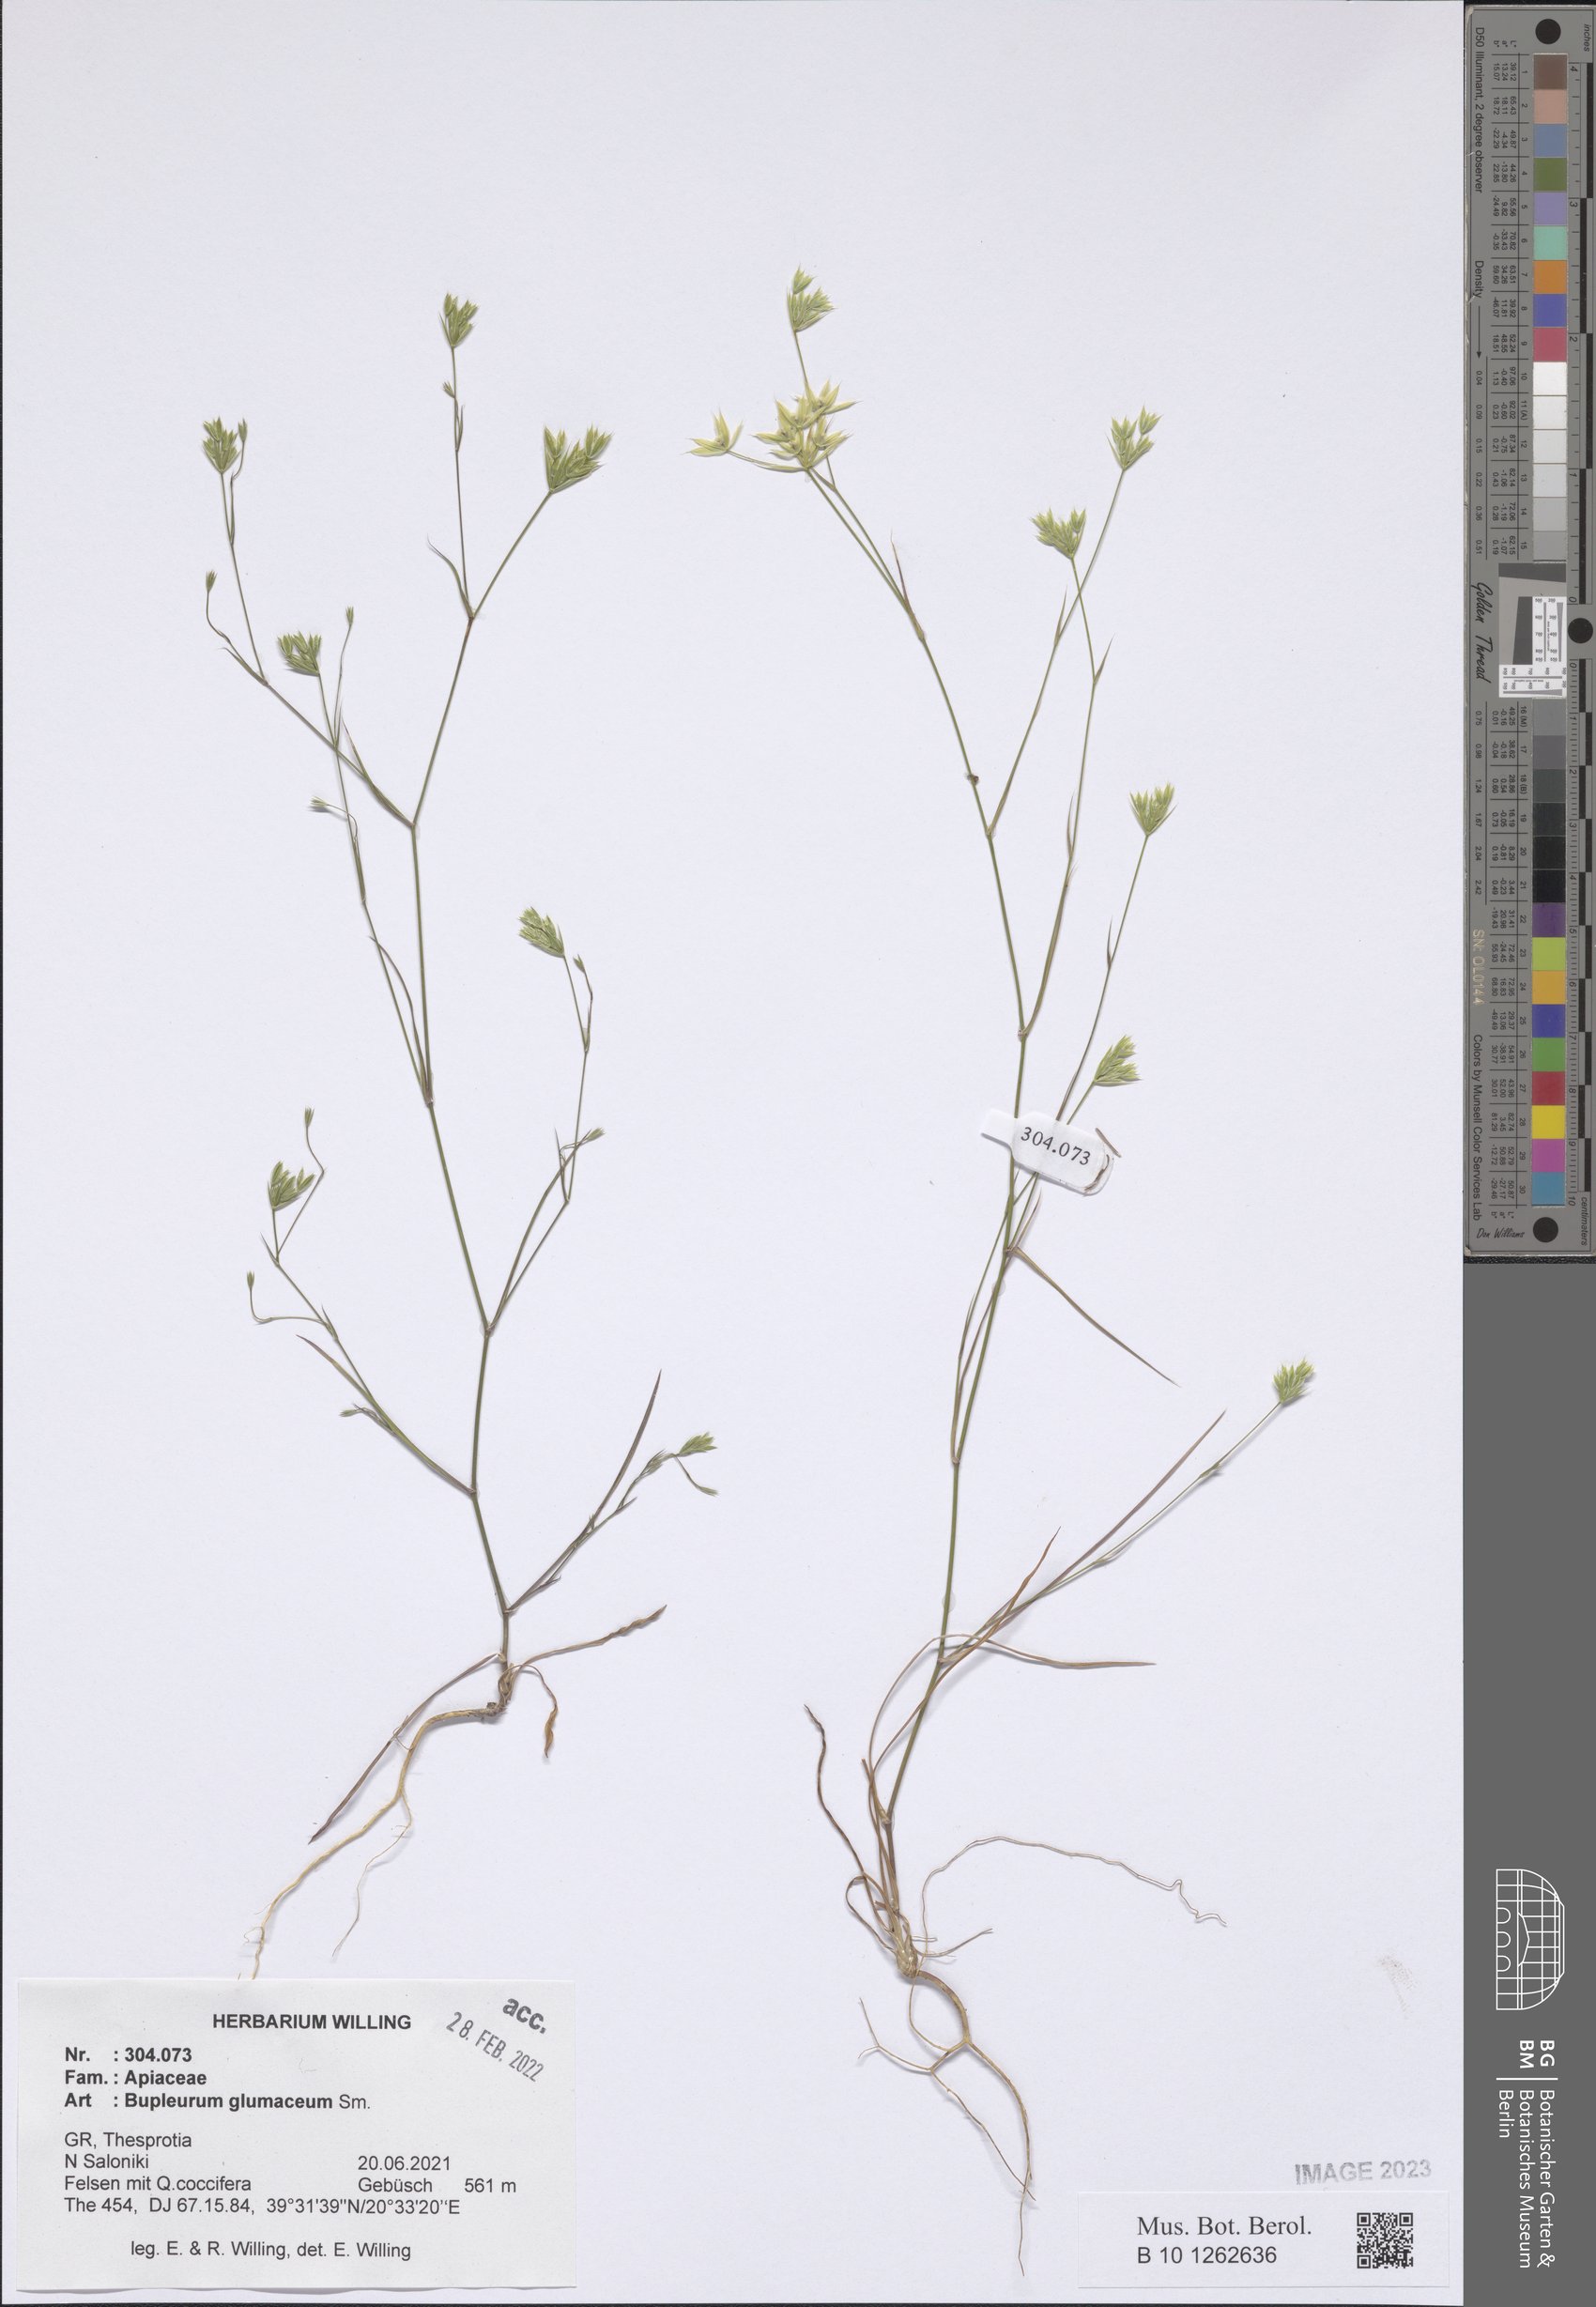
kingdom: Plantae
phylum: Tracheophyta
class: Magnoliopsida
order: Apiales
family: Apiaceae
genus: Bupleurum
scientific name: Bupleurum glumaceum
